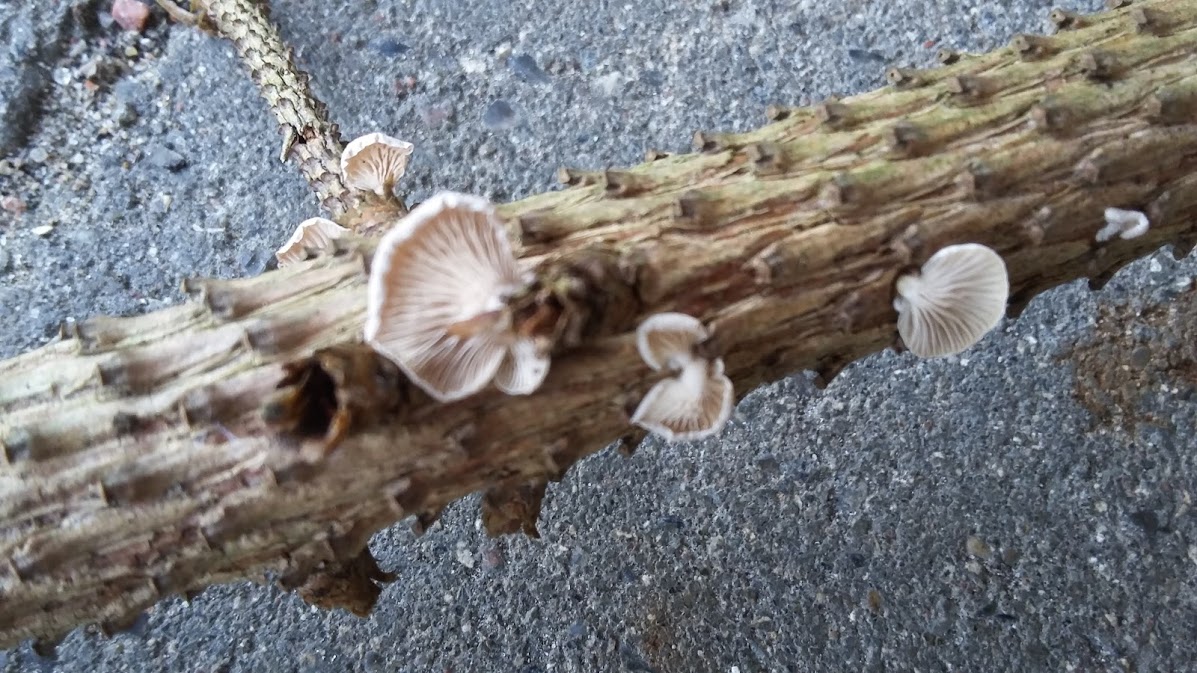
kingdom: Fungi
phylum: Basidiomycota
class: Agaricomycetes
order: Agaricales
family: Mycenaceae
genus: Panellus
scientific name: Panellus mitis
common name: mild epaulethat
